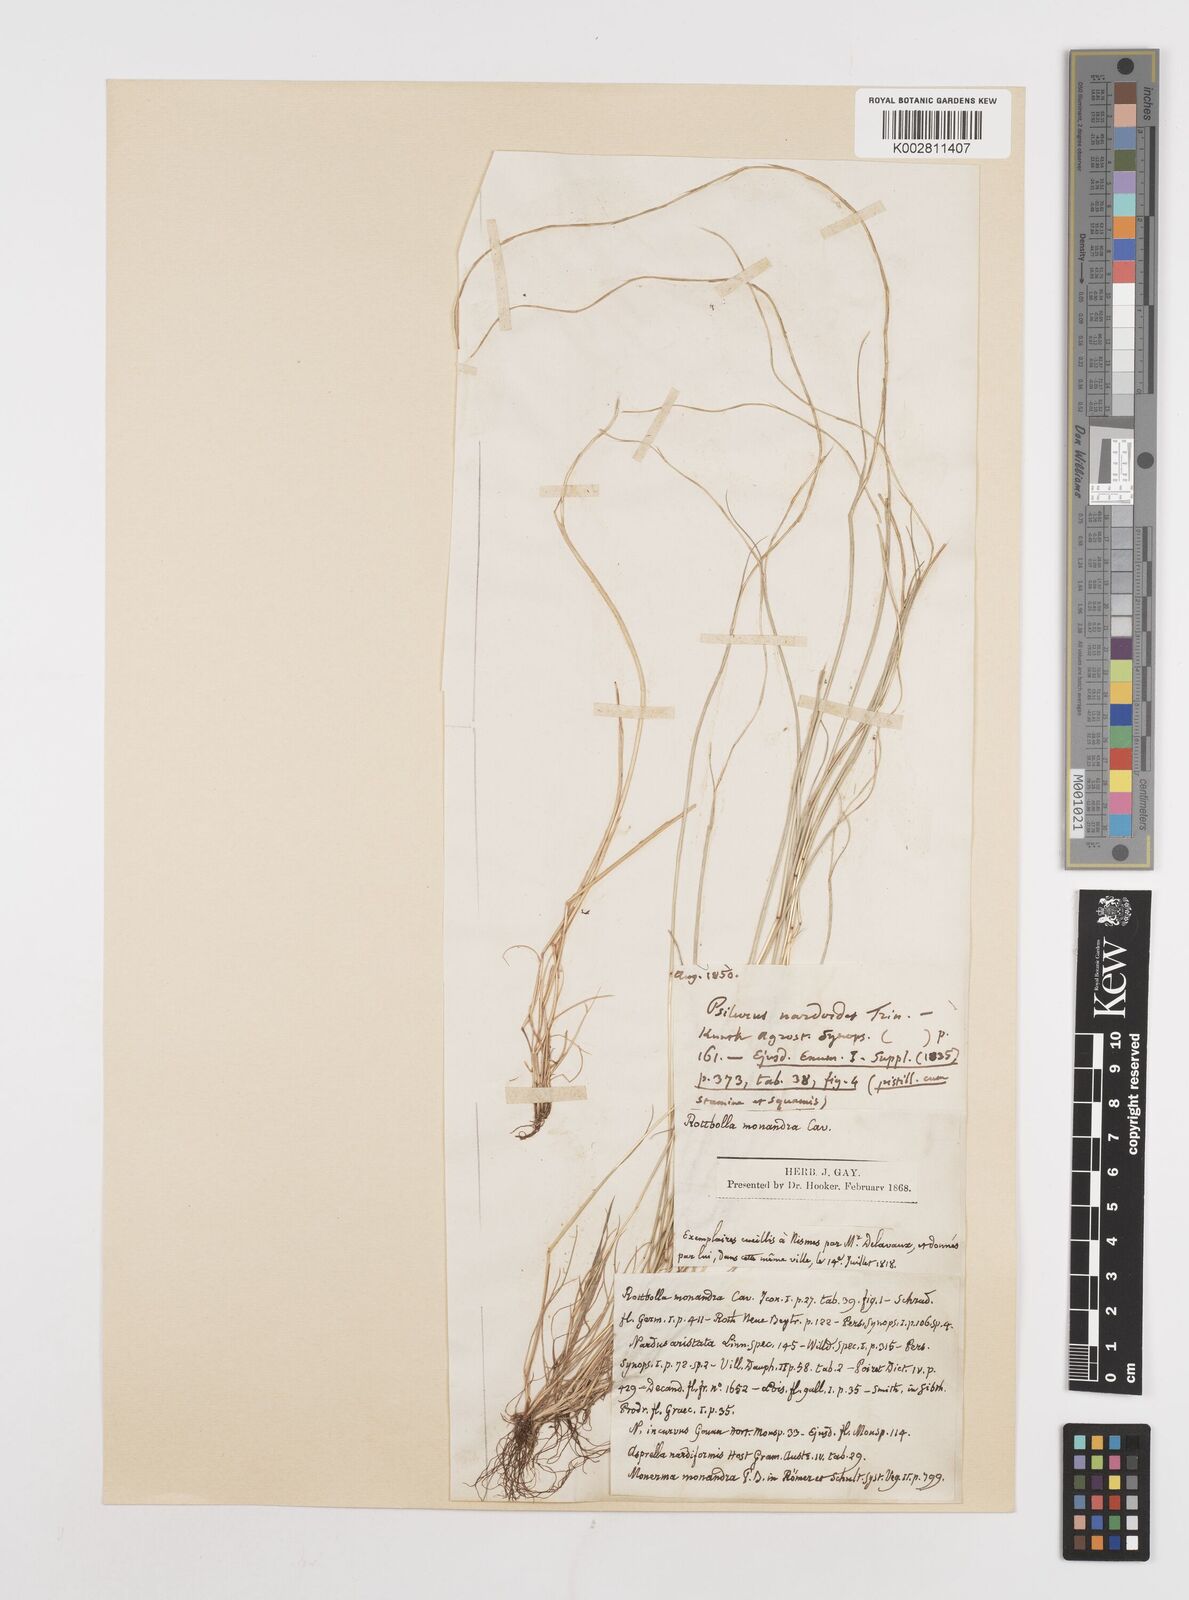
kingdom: Plantae
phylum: Tracheophyta
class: Liliopsida
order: Poales
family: Poaceae
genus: Festuca
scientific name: Festuca incurva
